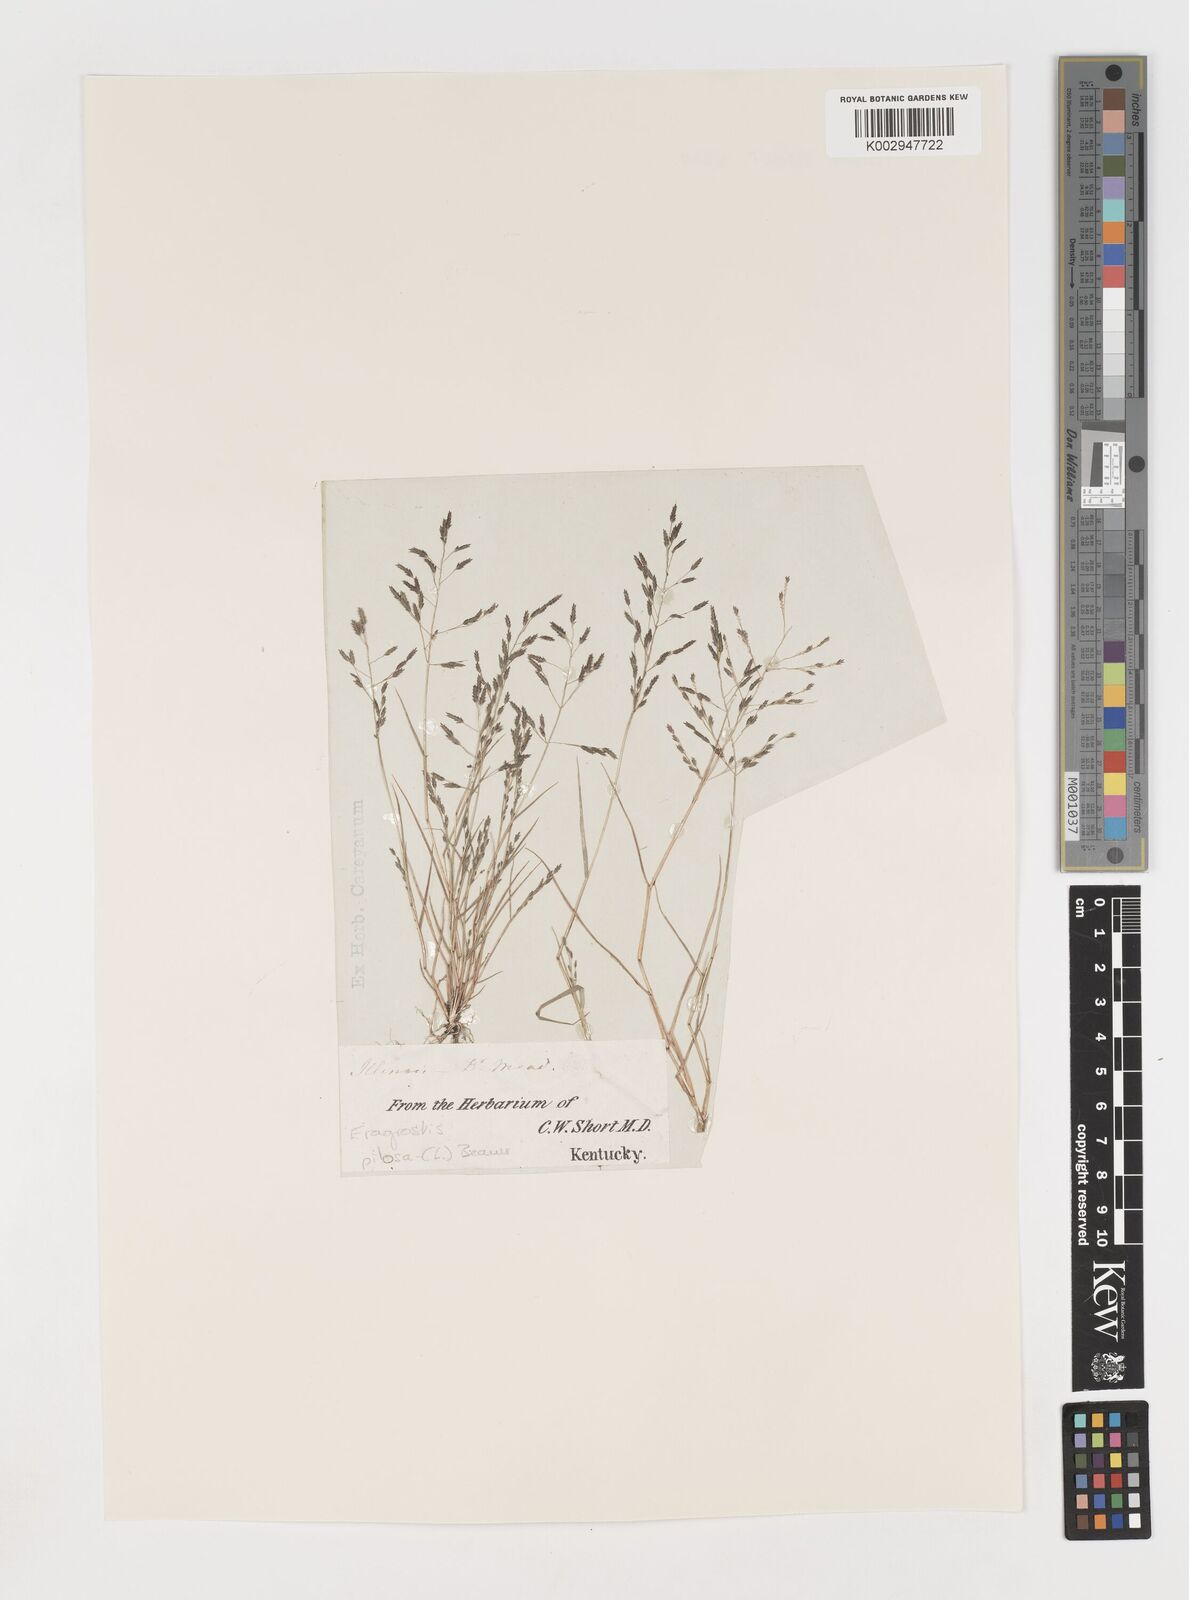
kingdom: Plantae
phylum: Tracheophyta
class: Liliopsida
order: Poales
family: Poaceae
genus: Eragrostis
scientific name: Eragrostis pilosa
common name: Indian lovegrass
